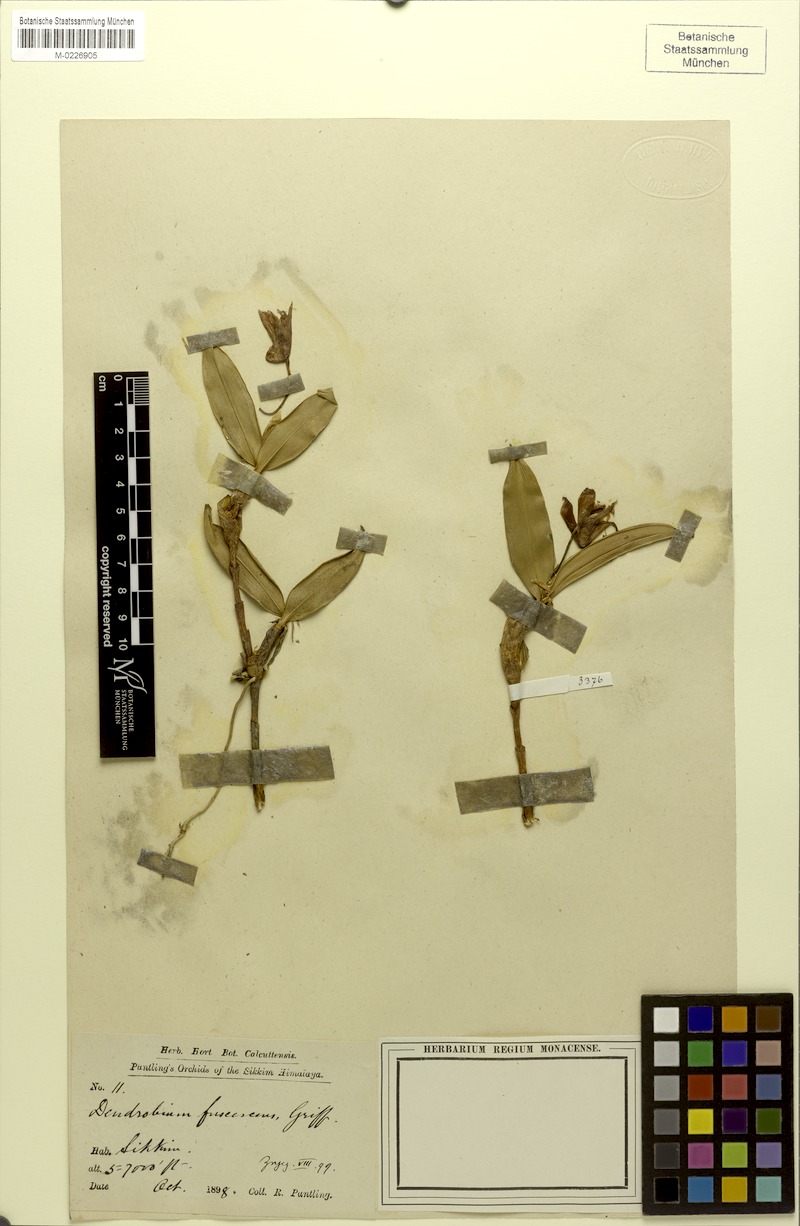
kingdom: Plantae
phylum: Tracheophyta
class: Liliopsida
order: Asparagales
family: Orchidaceae
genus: Dendrobium
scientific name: Dendrobium fuscescens
